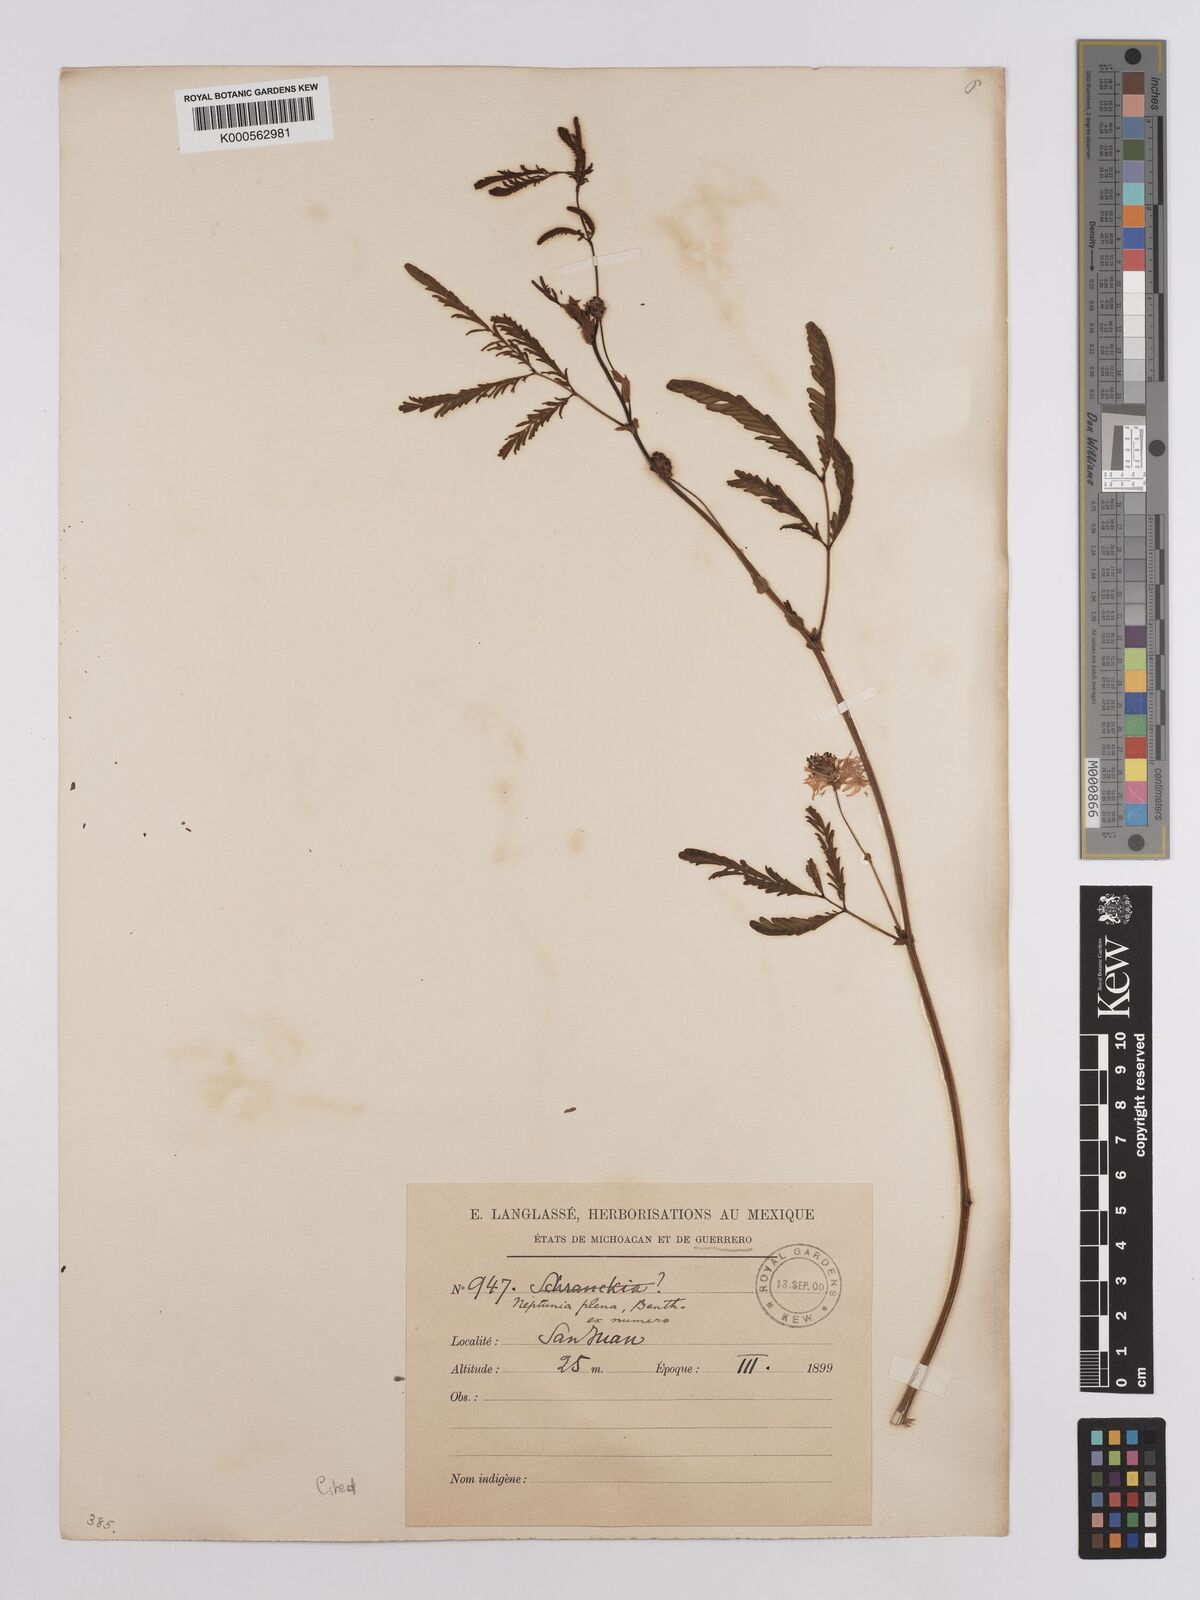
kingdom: Plantae
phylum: Tracheophyta
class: Magnoliopsida
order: Fabales
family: Fabaceae
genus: Neptunia
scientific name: Neptunia plena
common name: Dead and awake
